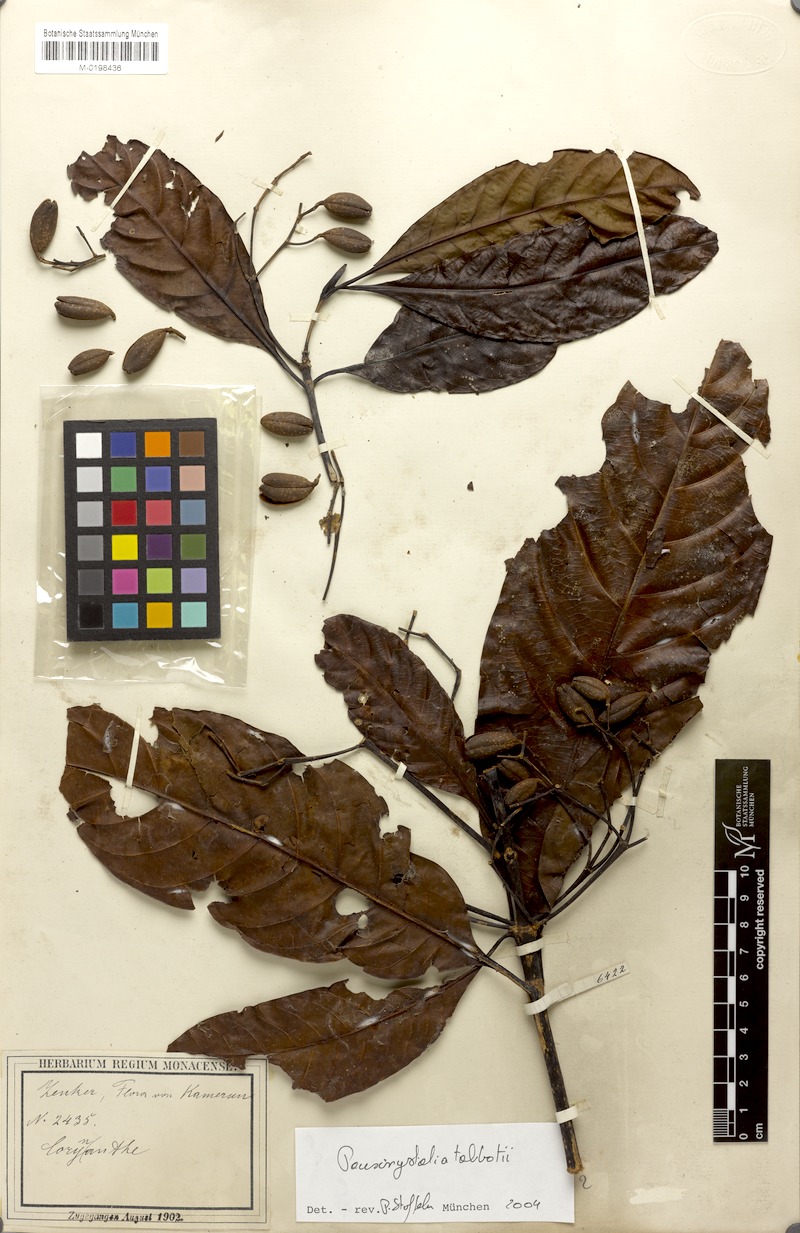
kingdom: Plantae
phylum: Tracheophyta
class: Magnoliopsida
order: Gentianales
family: Rubiaceae
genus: Corynanthe
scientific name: Corynanthe talbotii
